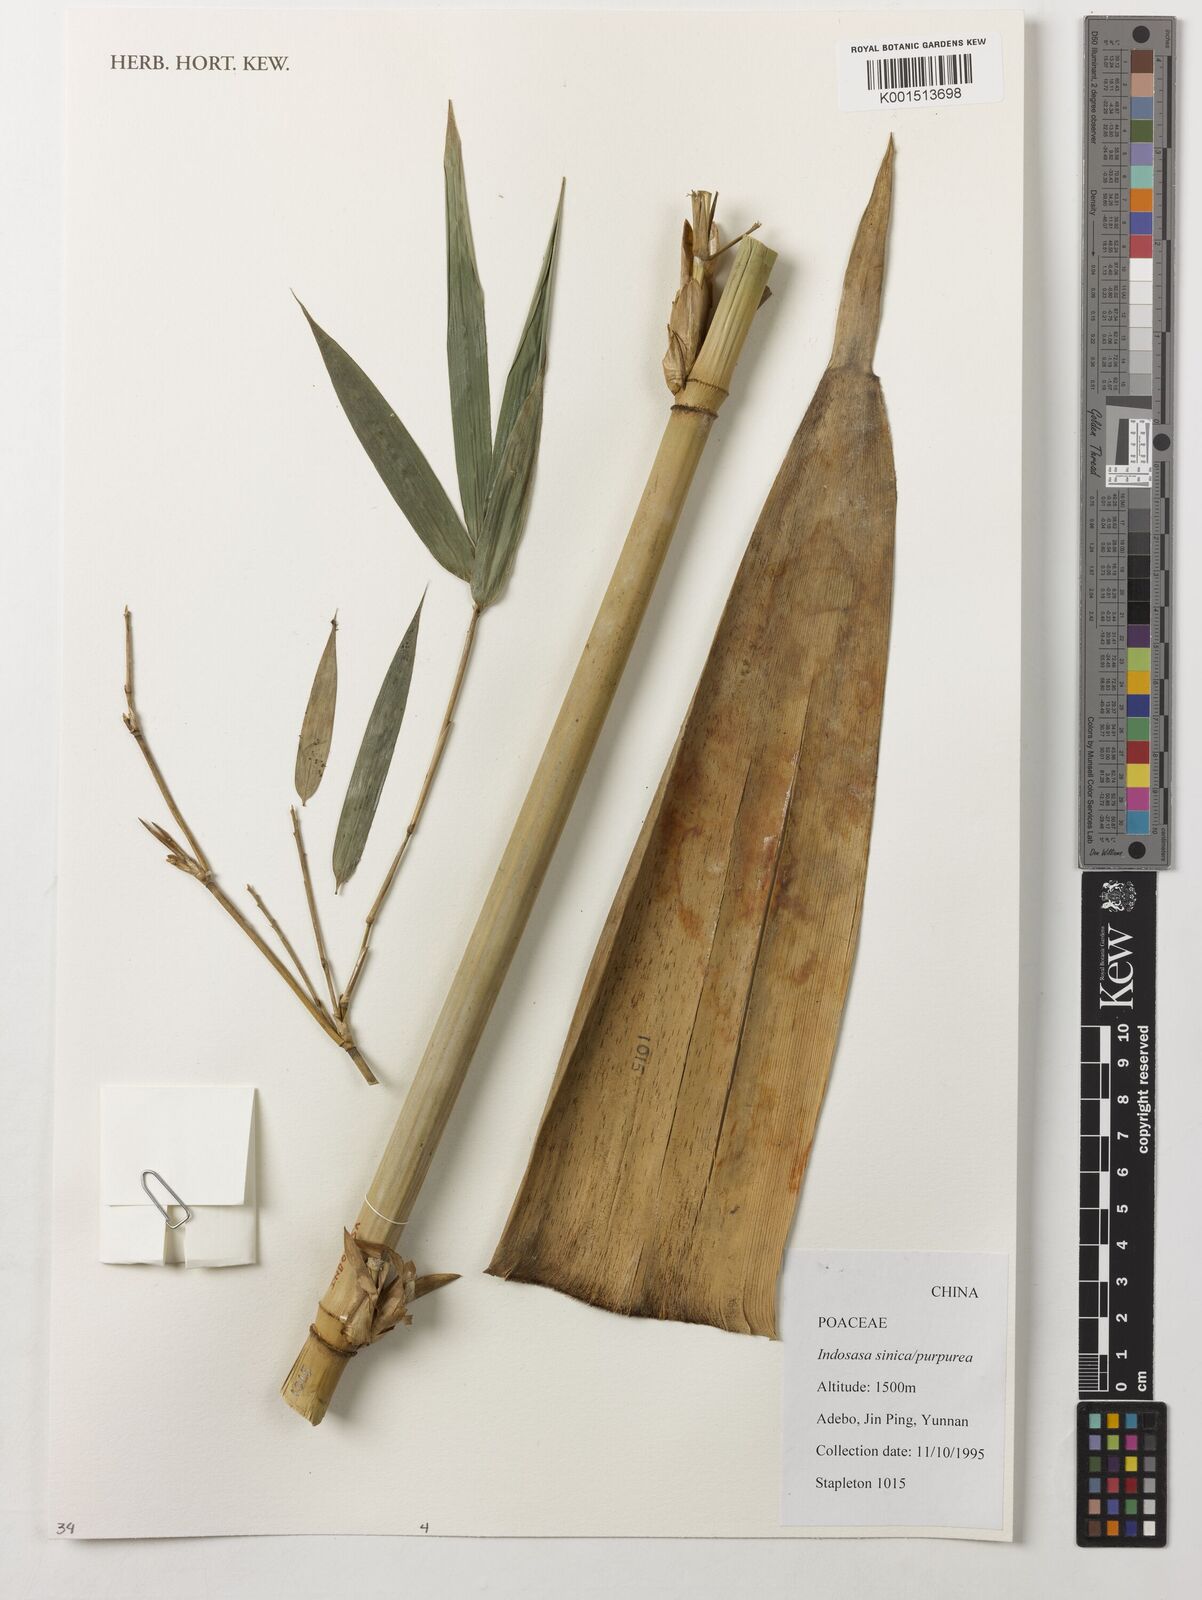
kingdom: Plantae
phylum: Tracheophyta
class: Liliopsida
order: Poales
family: Poaceae
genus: Indosasa
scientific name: Indosasa sinica
